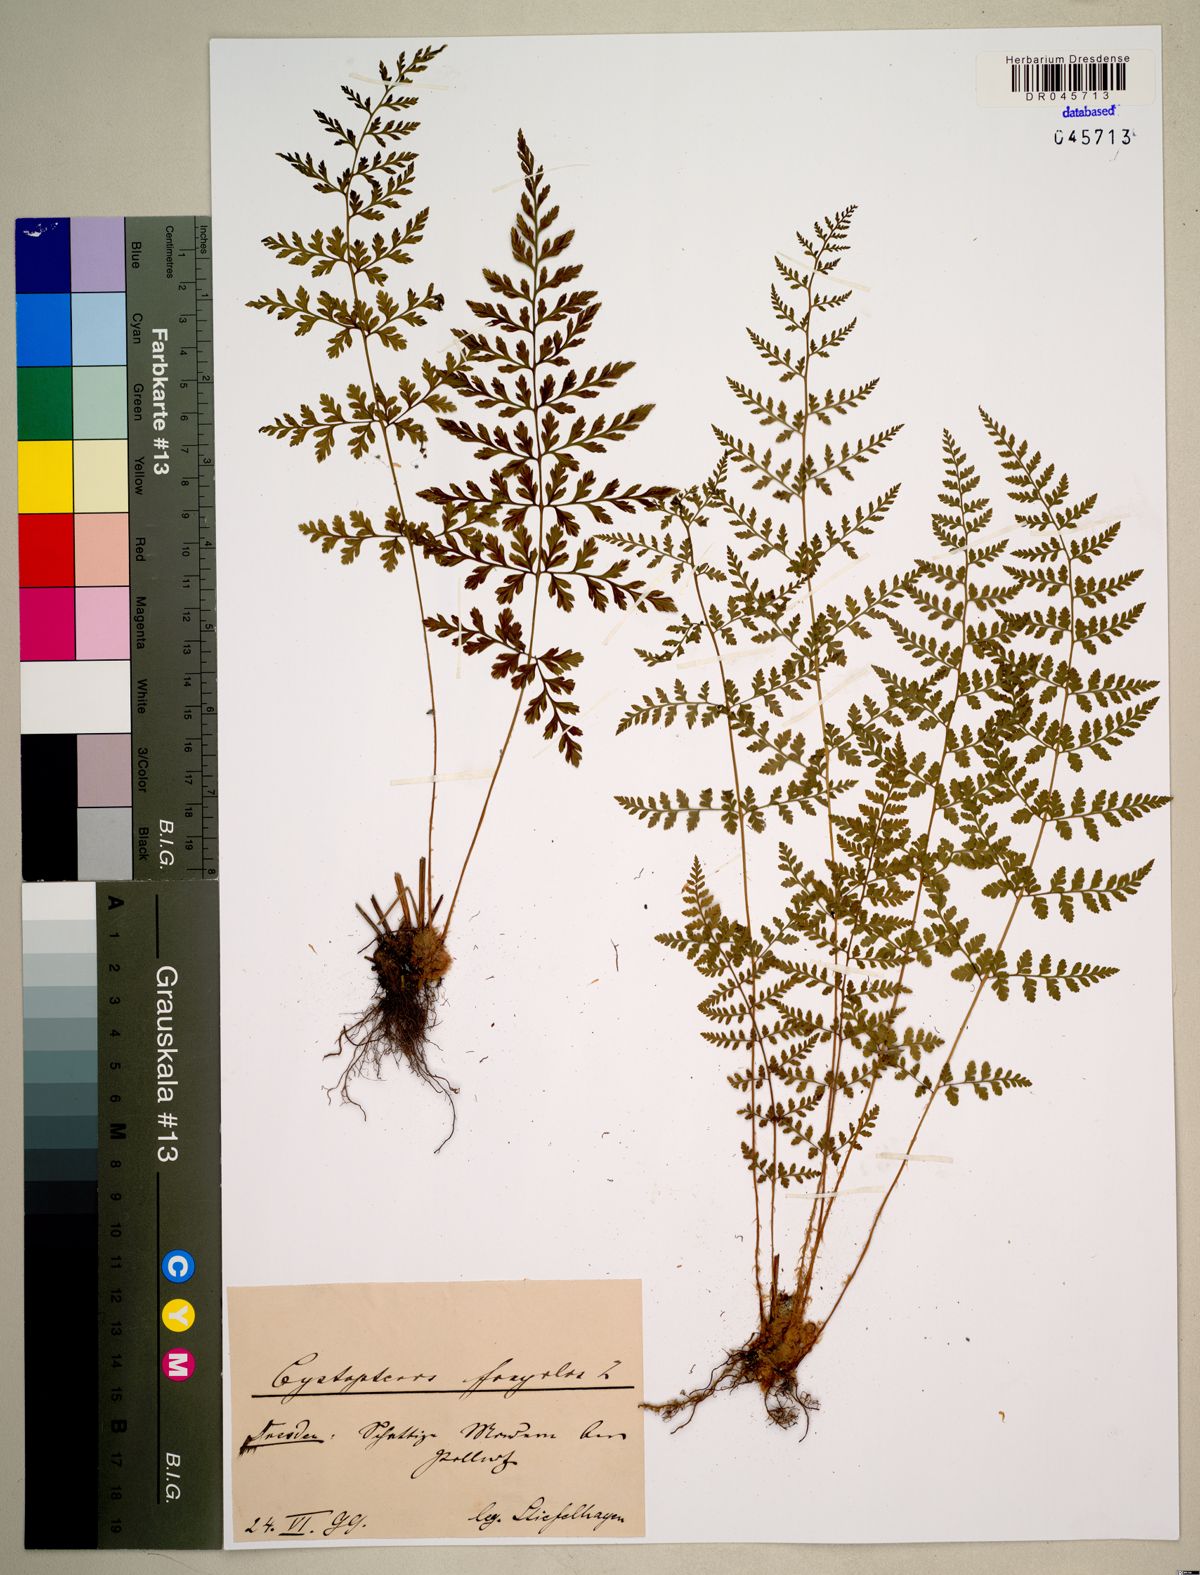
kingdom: Plantae
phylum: Tracheophyta
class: Polypodiopsida
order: Polypodiales
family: Cystopteridaceae
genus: Cystopteris
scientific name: Cystopteris fragilis
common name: Brittle bladder fern
